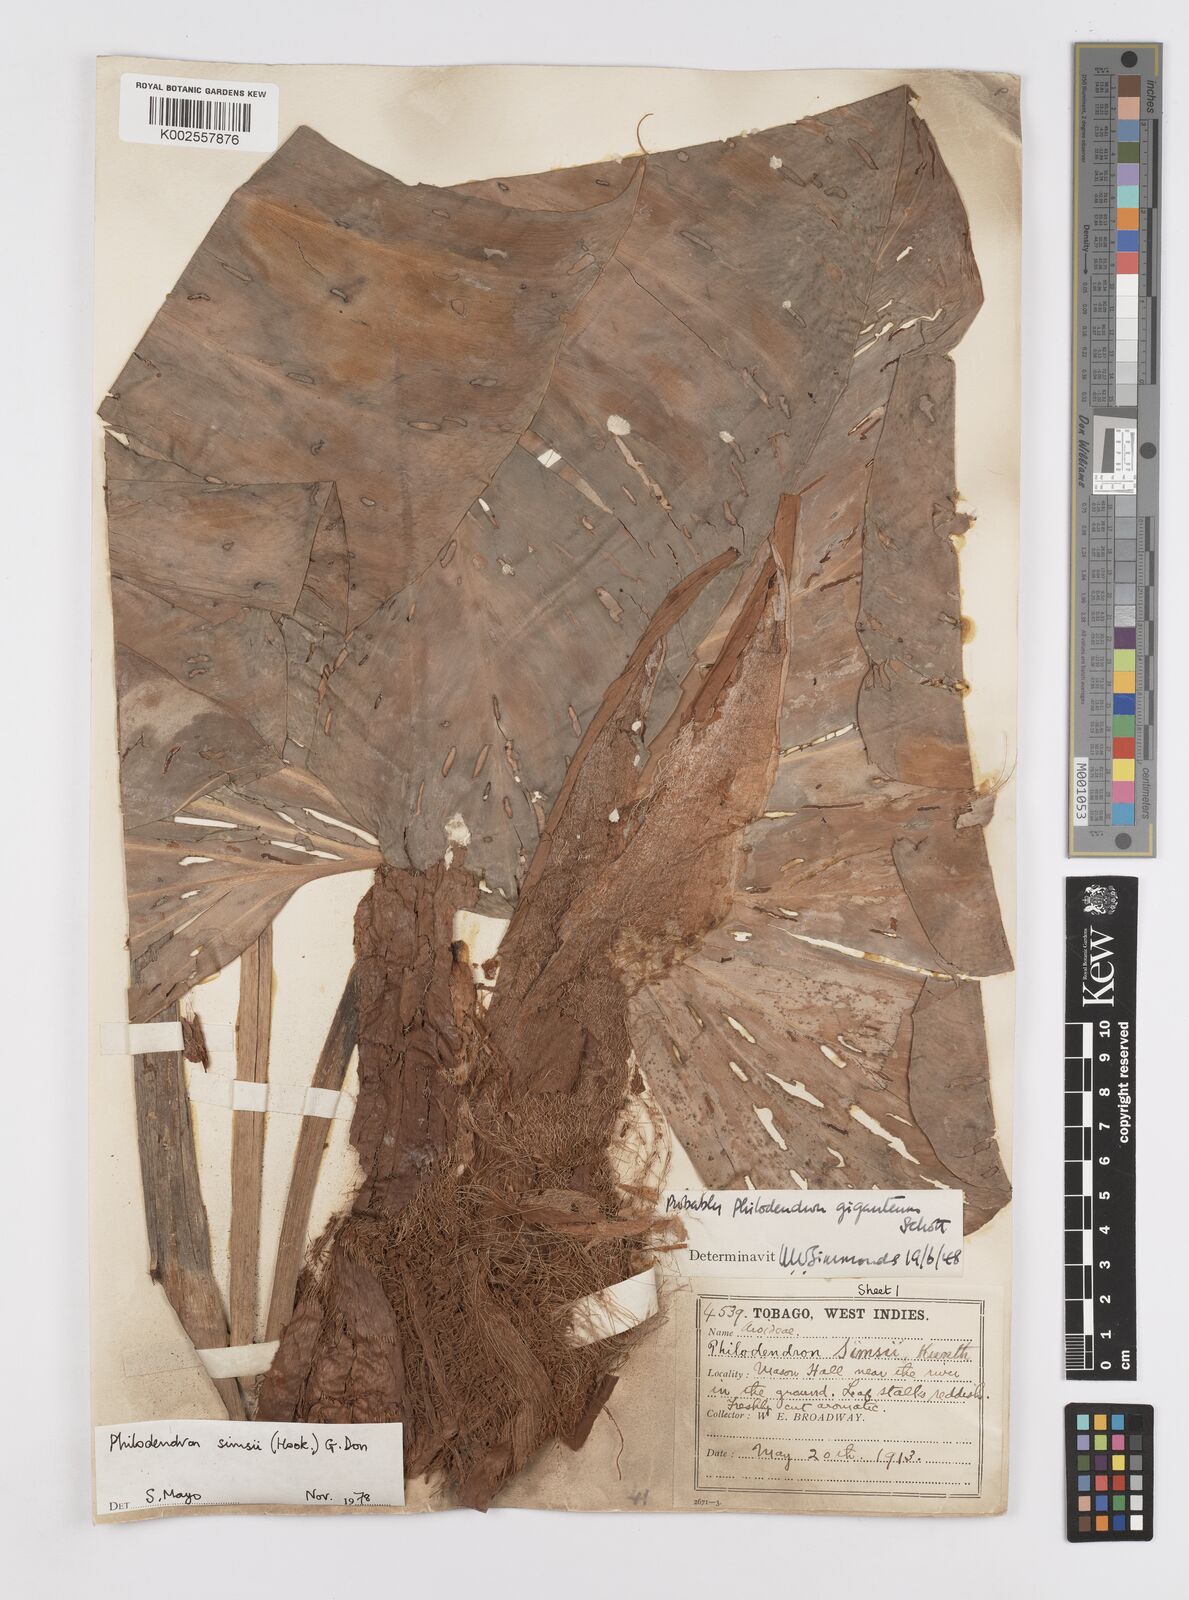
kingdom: Plantae
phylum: Tracheophyta
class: Liliopsida
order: Alismatales
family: Araceae
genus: Philodendron
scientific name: Philodendron
